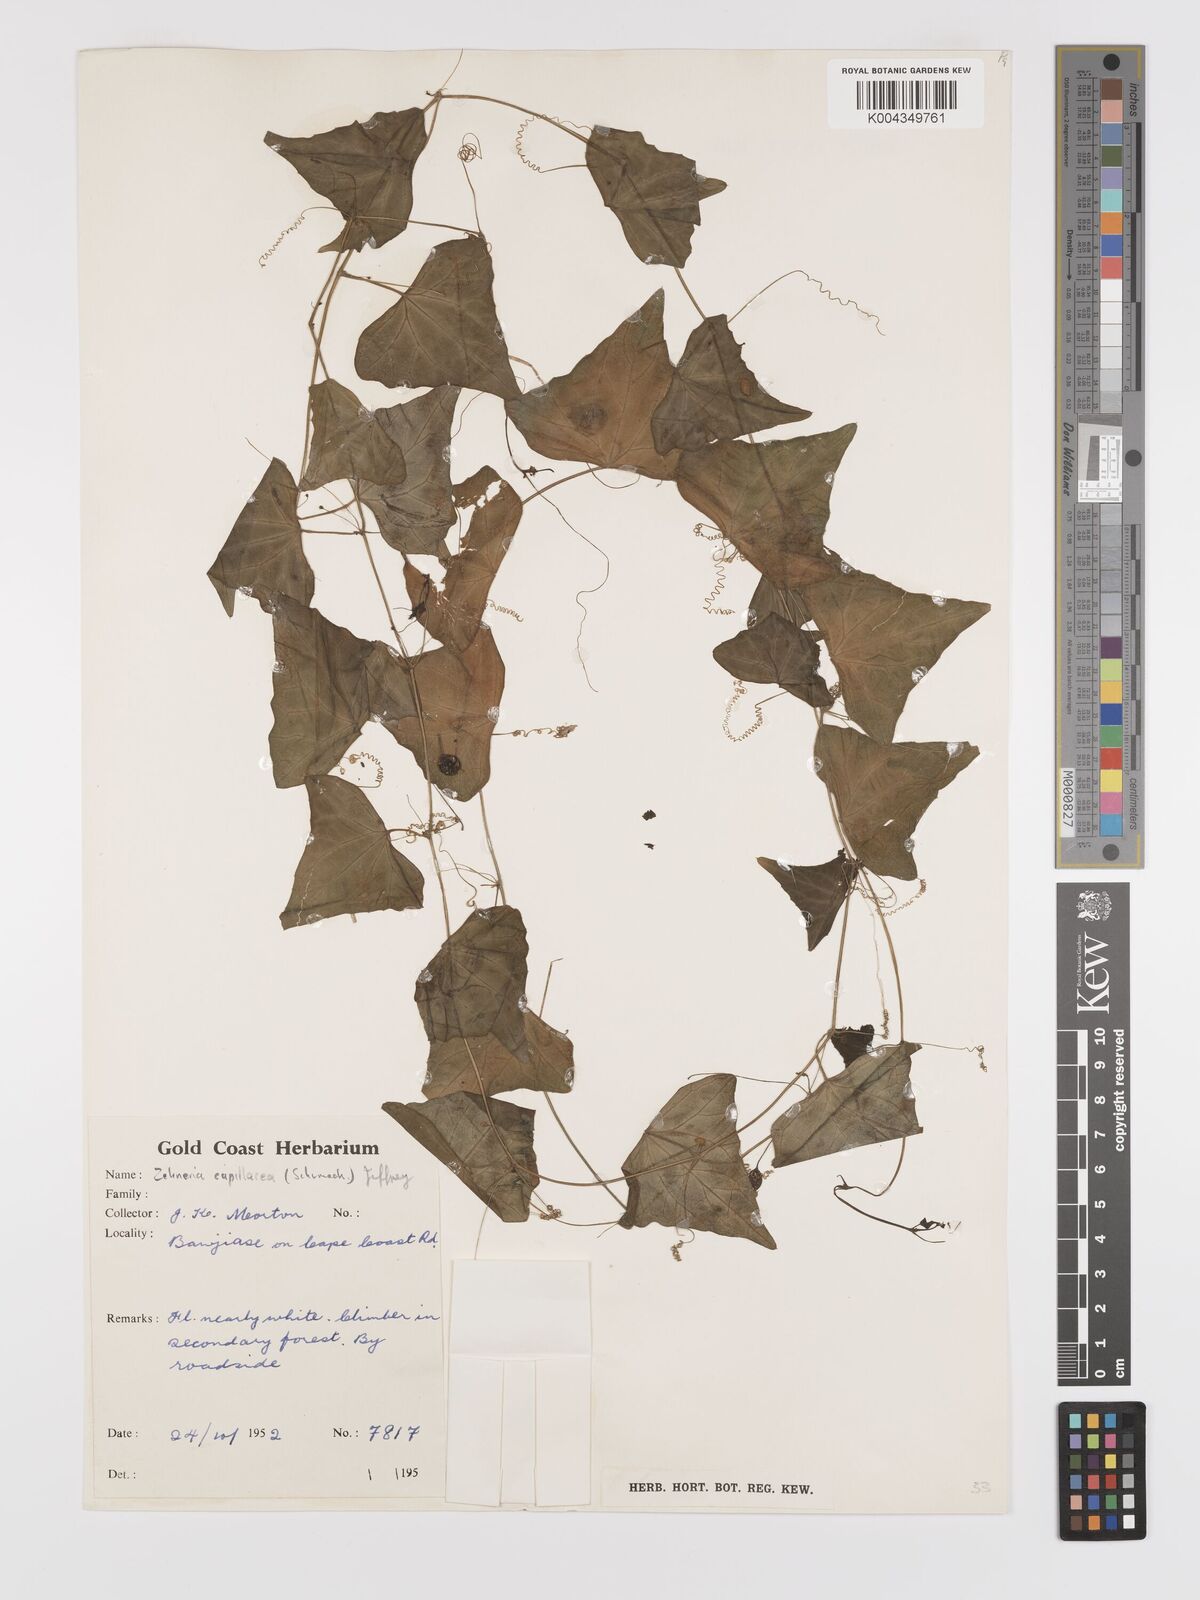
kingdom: Plantae
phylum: Tracheophyta
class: Magnoliopsida
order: Cucurbitales
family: Cucurbitaceae
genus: Zehneria
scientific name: Zehneria capillacea
